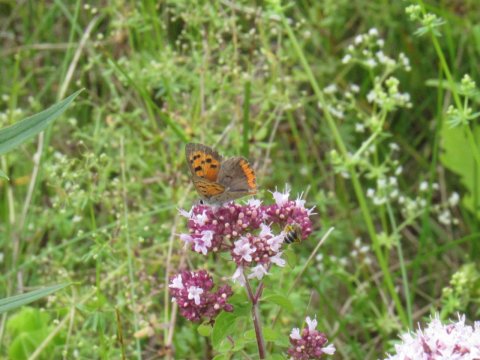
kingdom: Animalia
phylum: Arthropoda
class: Insecta
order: Lepidoptera
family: Lycaenidae
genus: Lycaena
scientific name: Lycaena phlaeas
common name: American Copper
